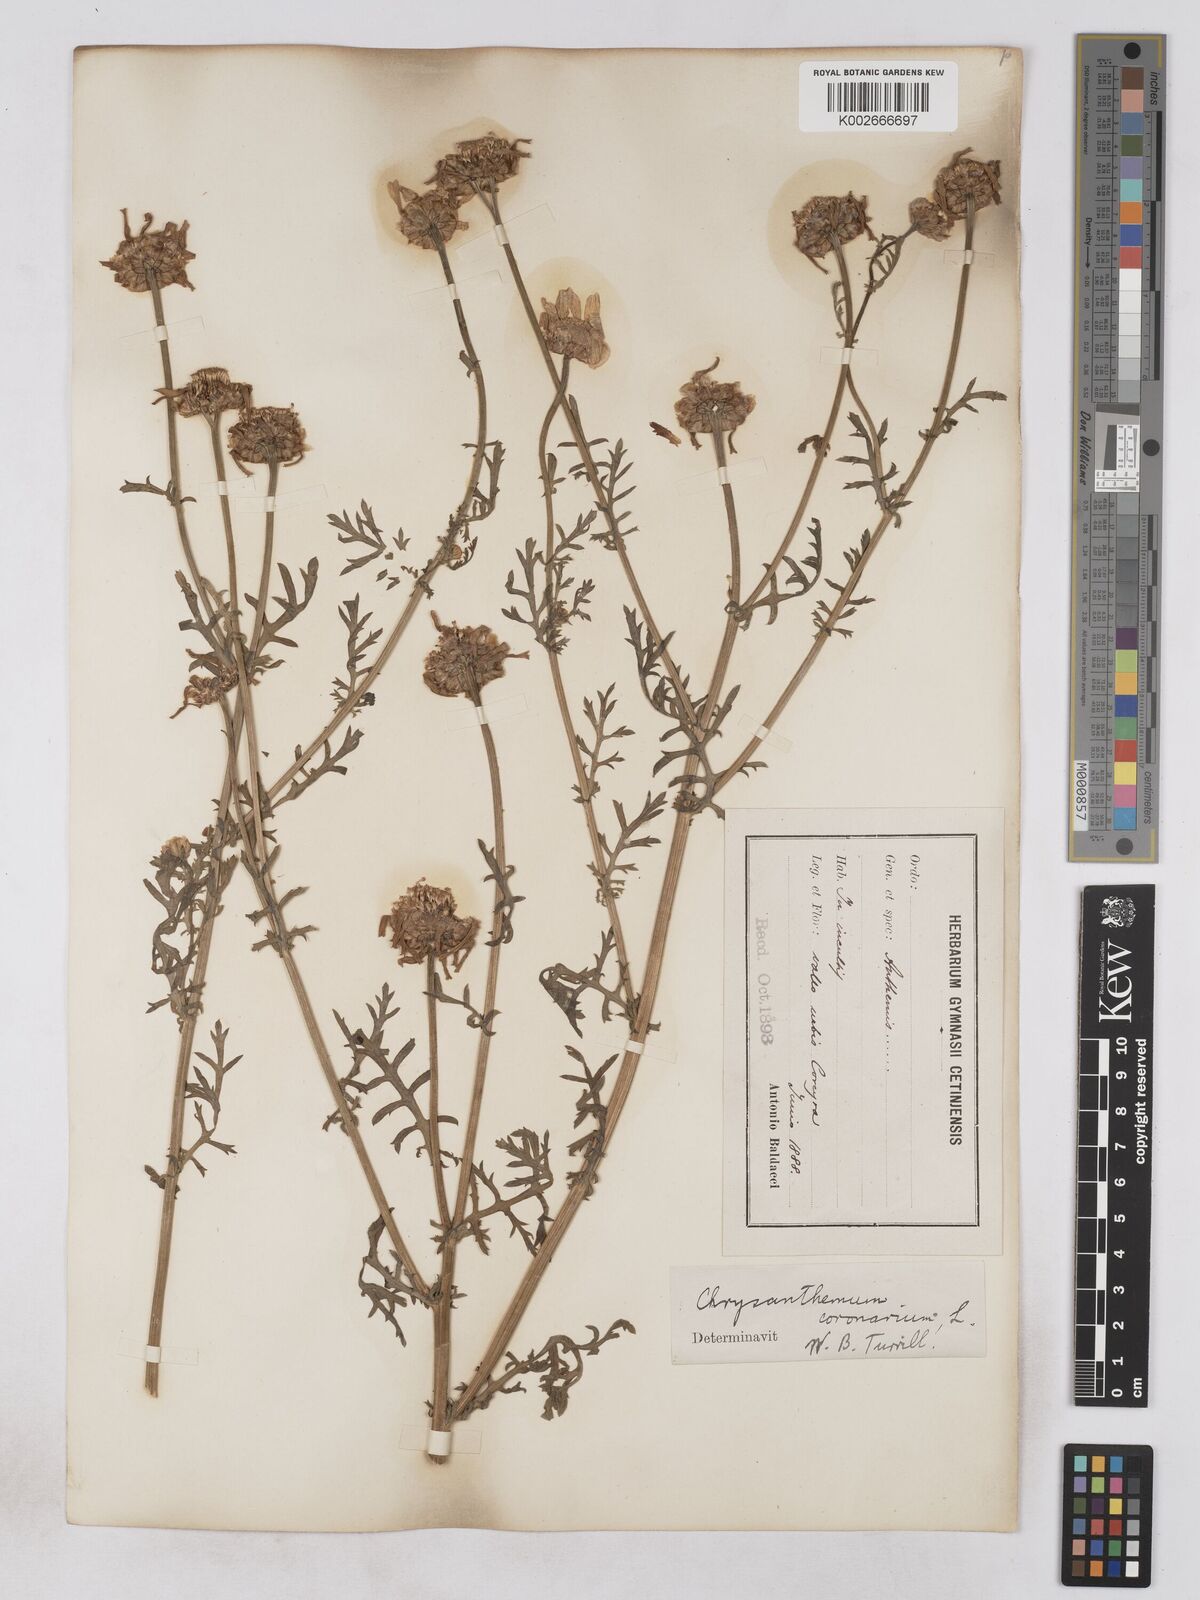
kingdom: Plantae
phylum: Tracheophyta
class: Magnoliopsida
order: Asterales
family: Asteraceae
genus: Glebionis
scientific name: Glebionis coronaria
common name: Crowndaisy
